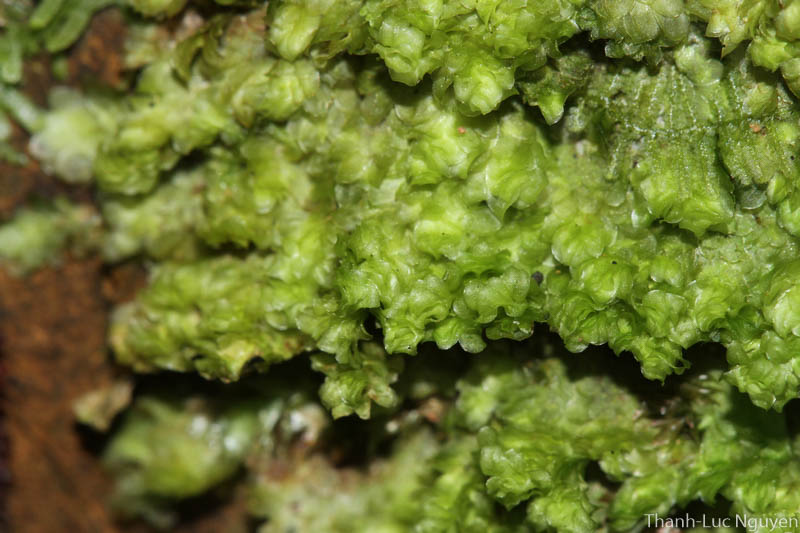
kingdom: Plantae
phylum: Bryophyta
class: Bryopsida
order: Hookeriales
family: Daltoniaceae
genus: Leskeodon
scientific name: Leskeodon maibarae
